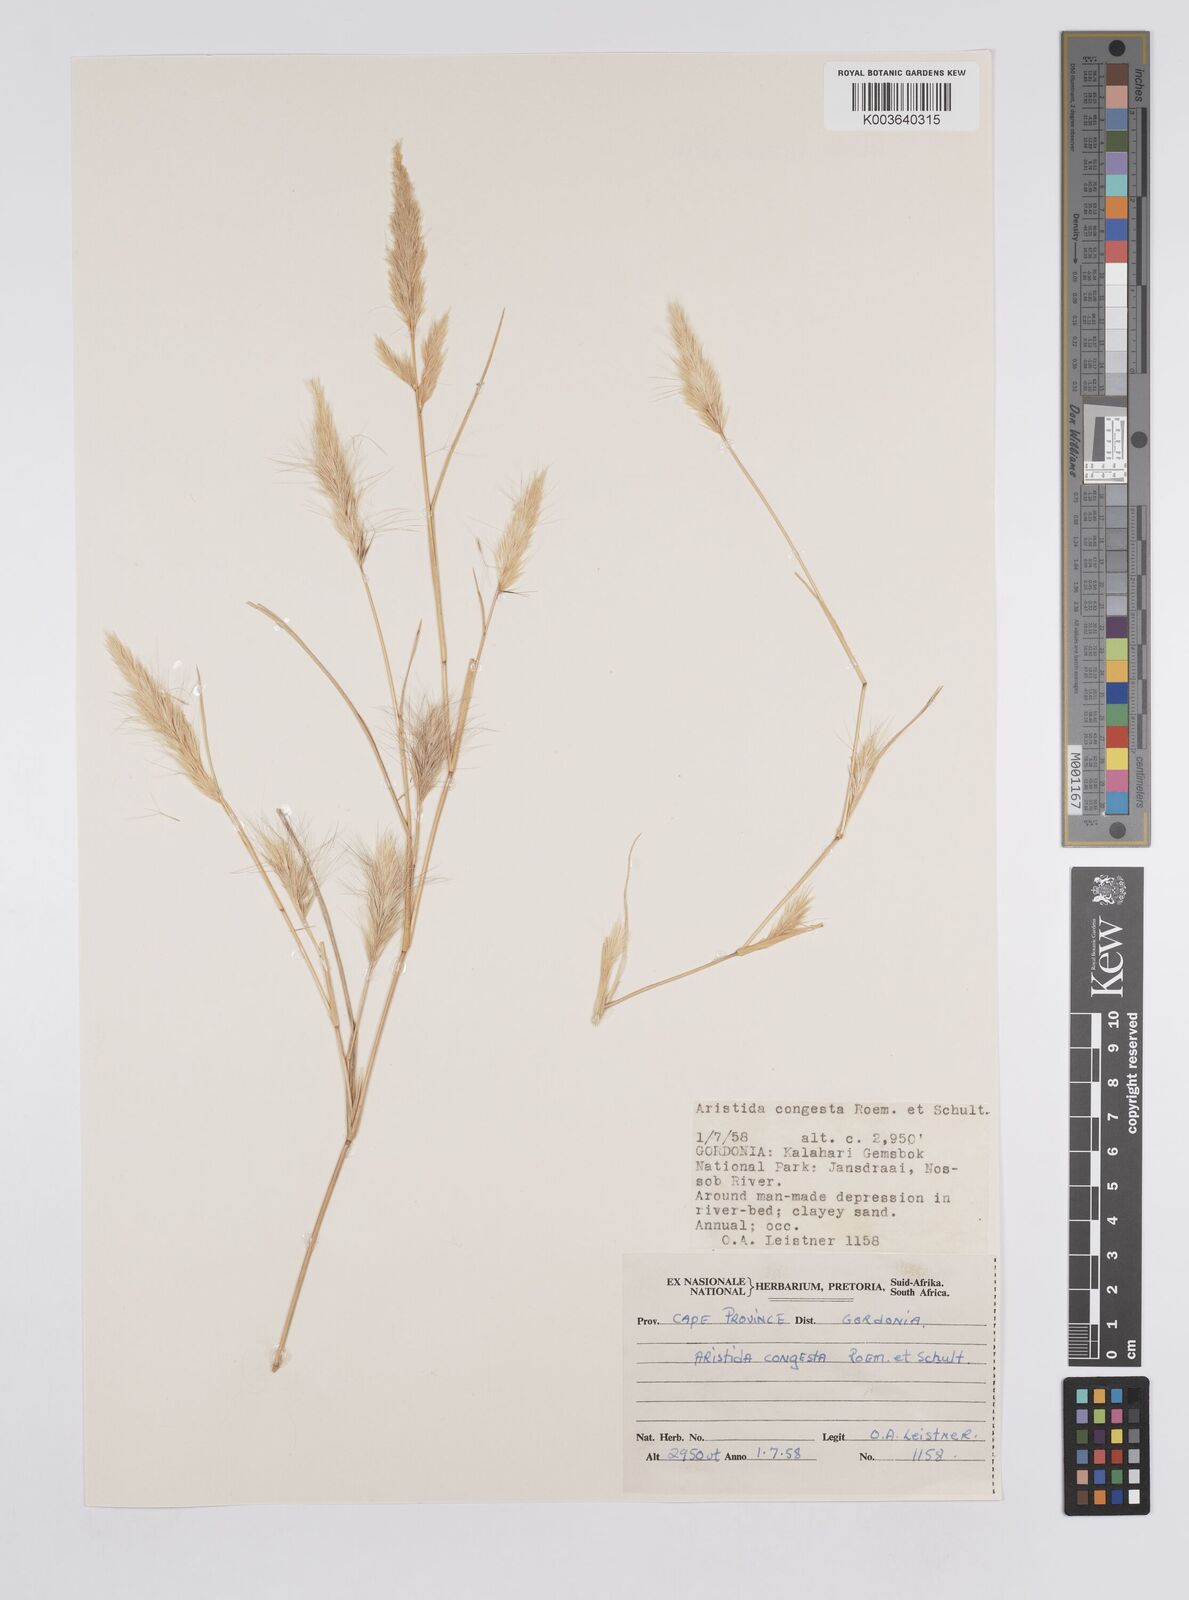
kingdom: Plantae
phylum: Tracheophyta
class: Liliopsida
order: Poales
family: Poaceae
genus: Aristida
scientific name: Aristida congesta
